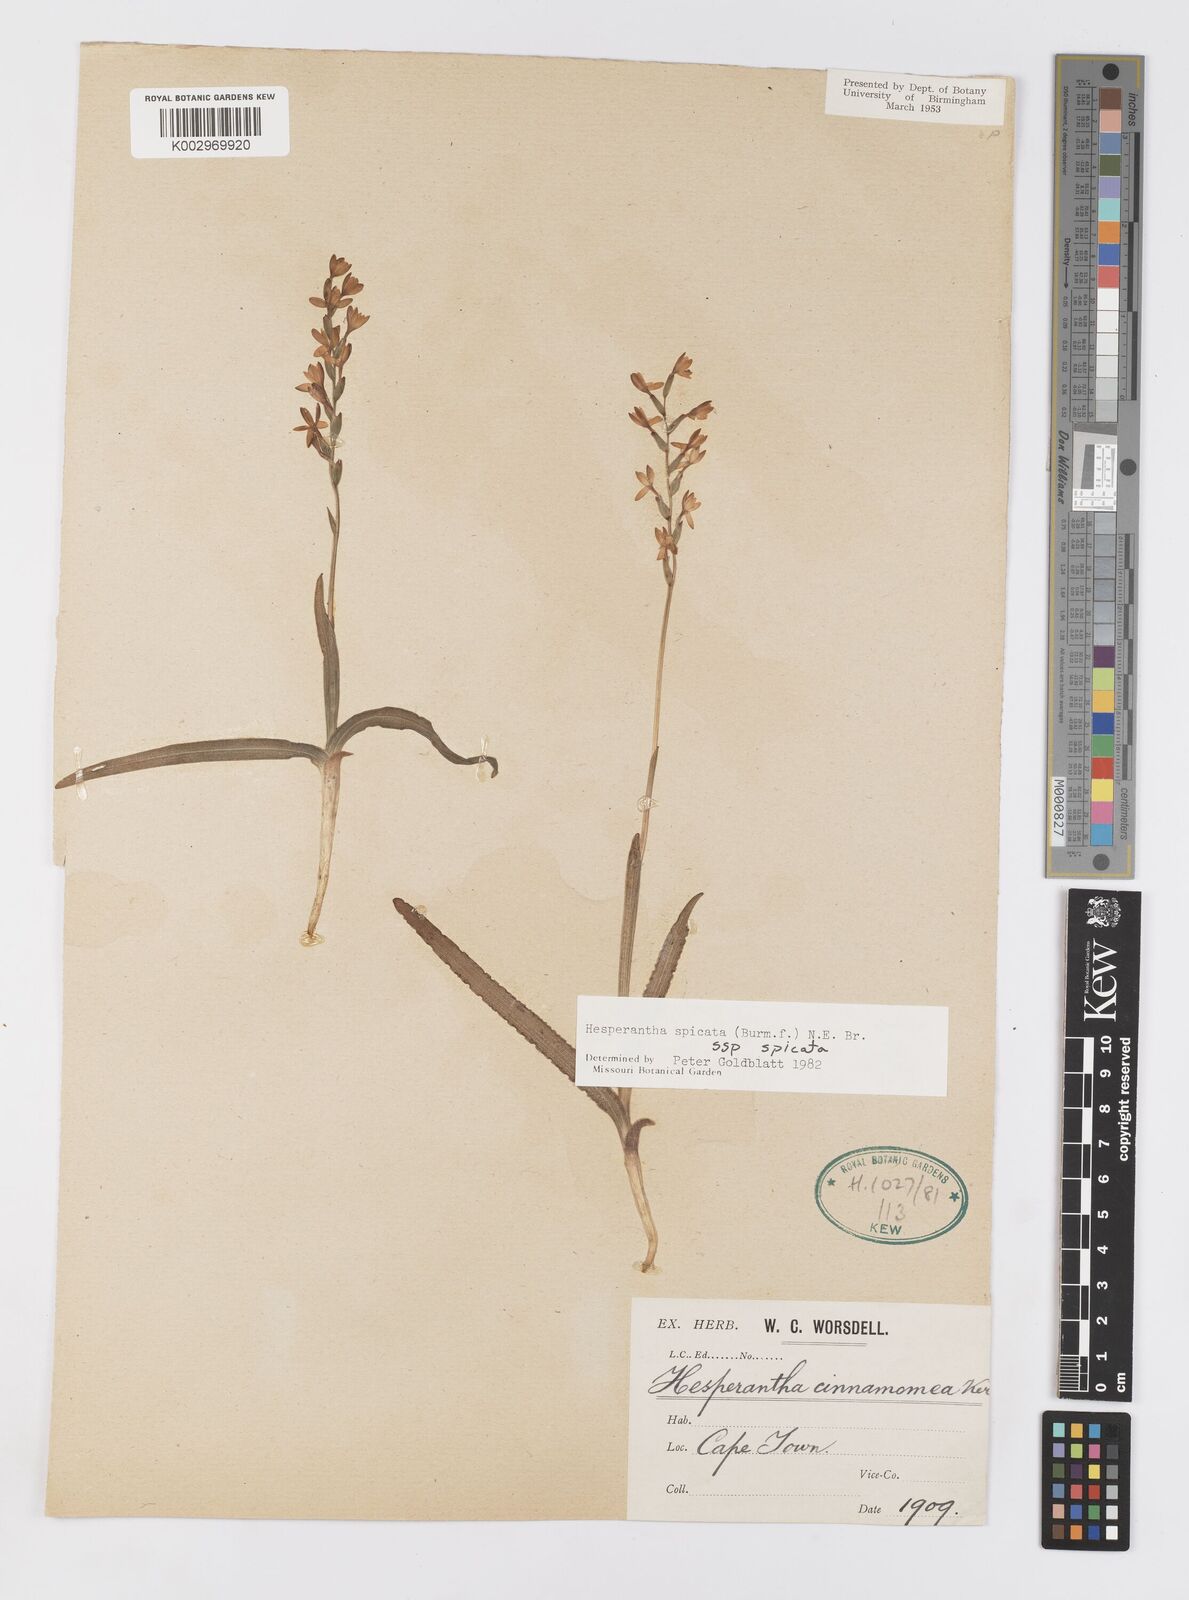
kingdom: Plantae
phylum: Tracheophyta
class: Liliopsida
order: Asparagales
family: Iridaceae
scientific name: Iridaceae
